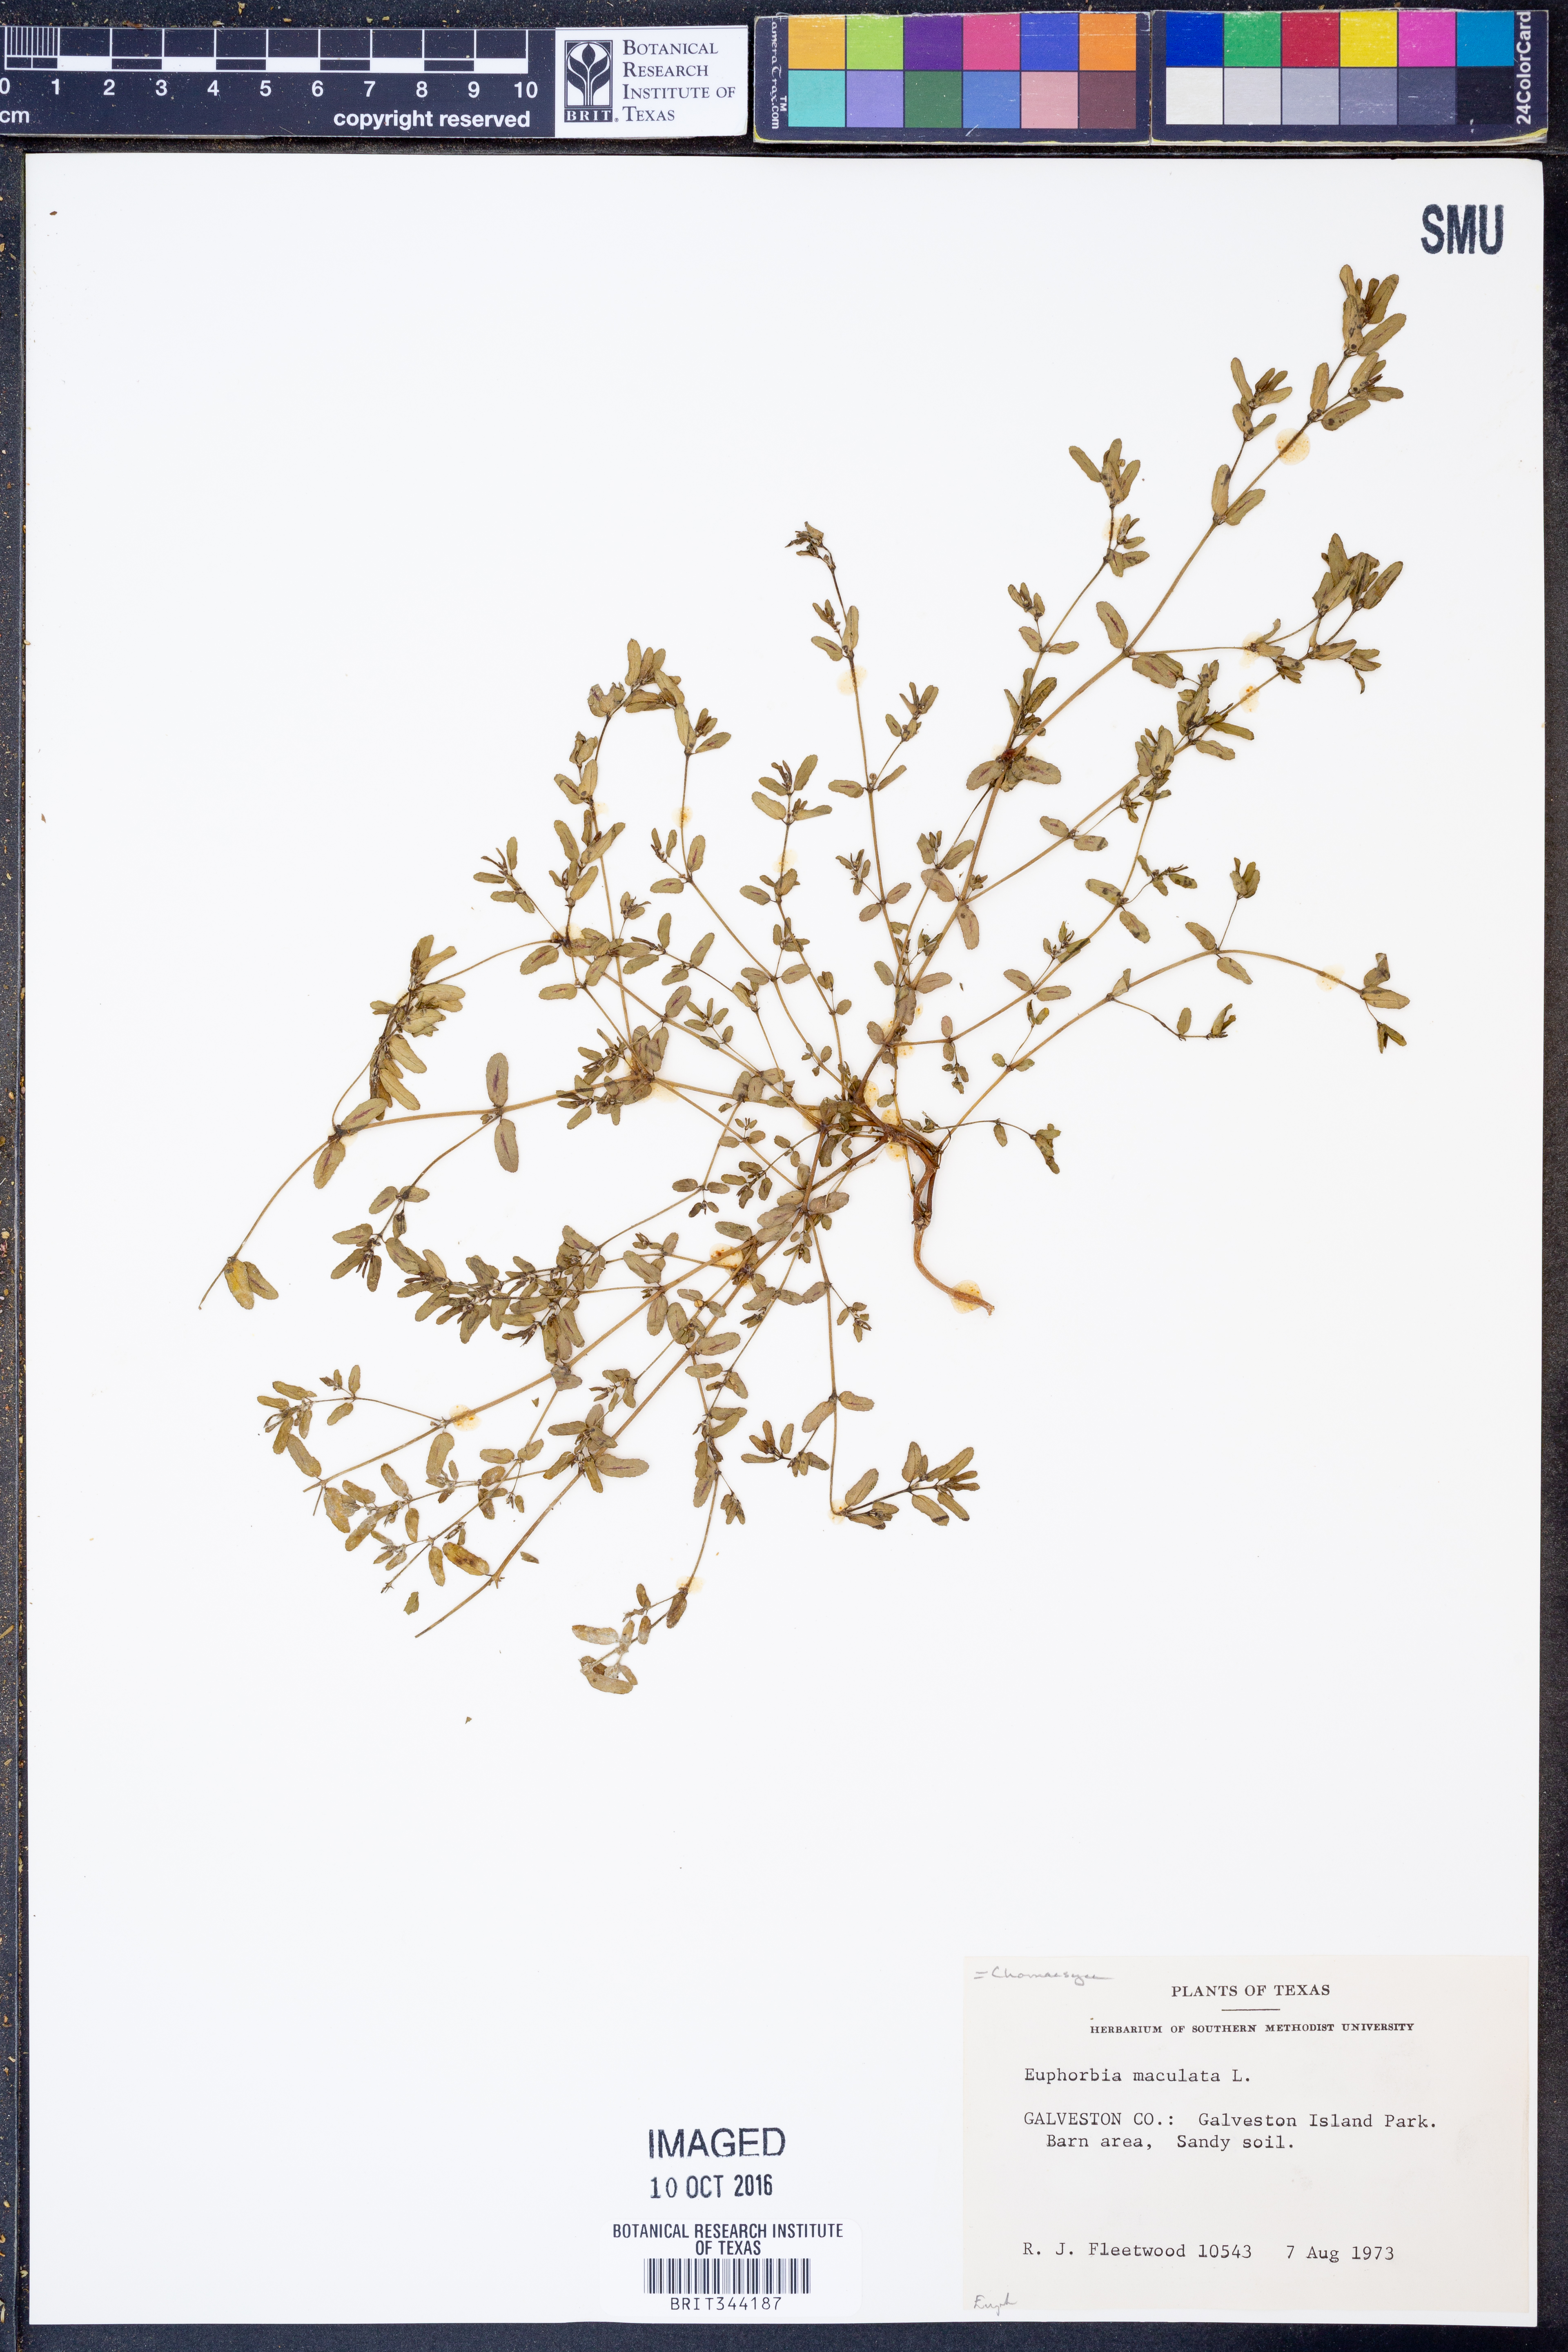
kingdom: Plantae
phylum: Tracheophyta
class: Magnoliopsida
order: Malpighiales
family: Euphorbiaceae
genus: Euphorbia
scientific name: Euphorbia maculata
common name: Spotted spurge
